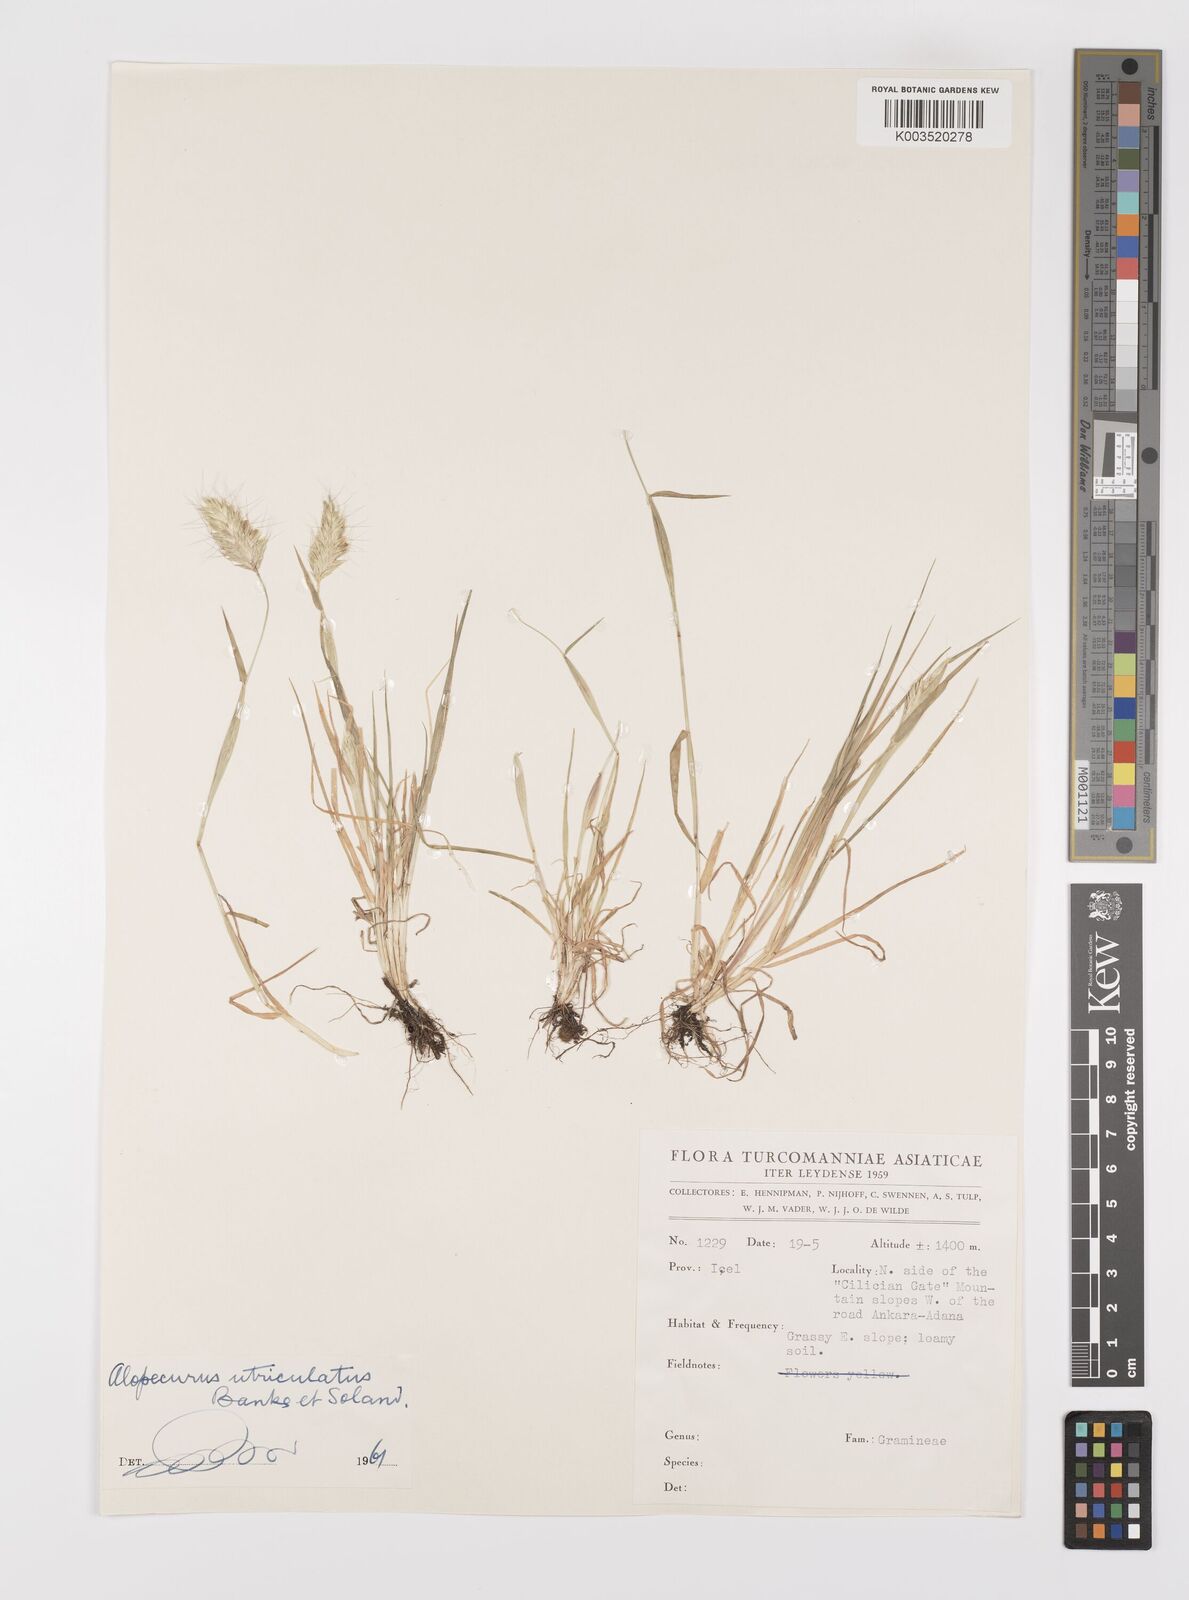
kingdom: Plantae
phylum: Tracheophyta
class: Liliopsida
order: Poales
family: Poaceae
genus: Alopecurus
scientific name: Alopecurus utriculatus
